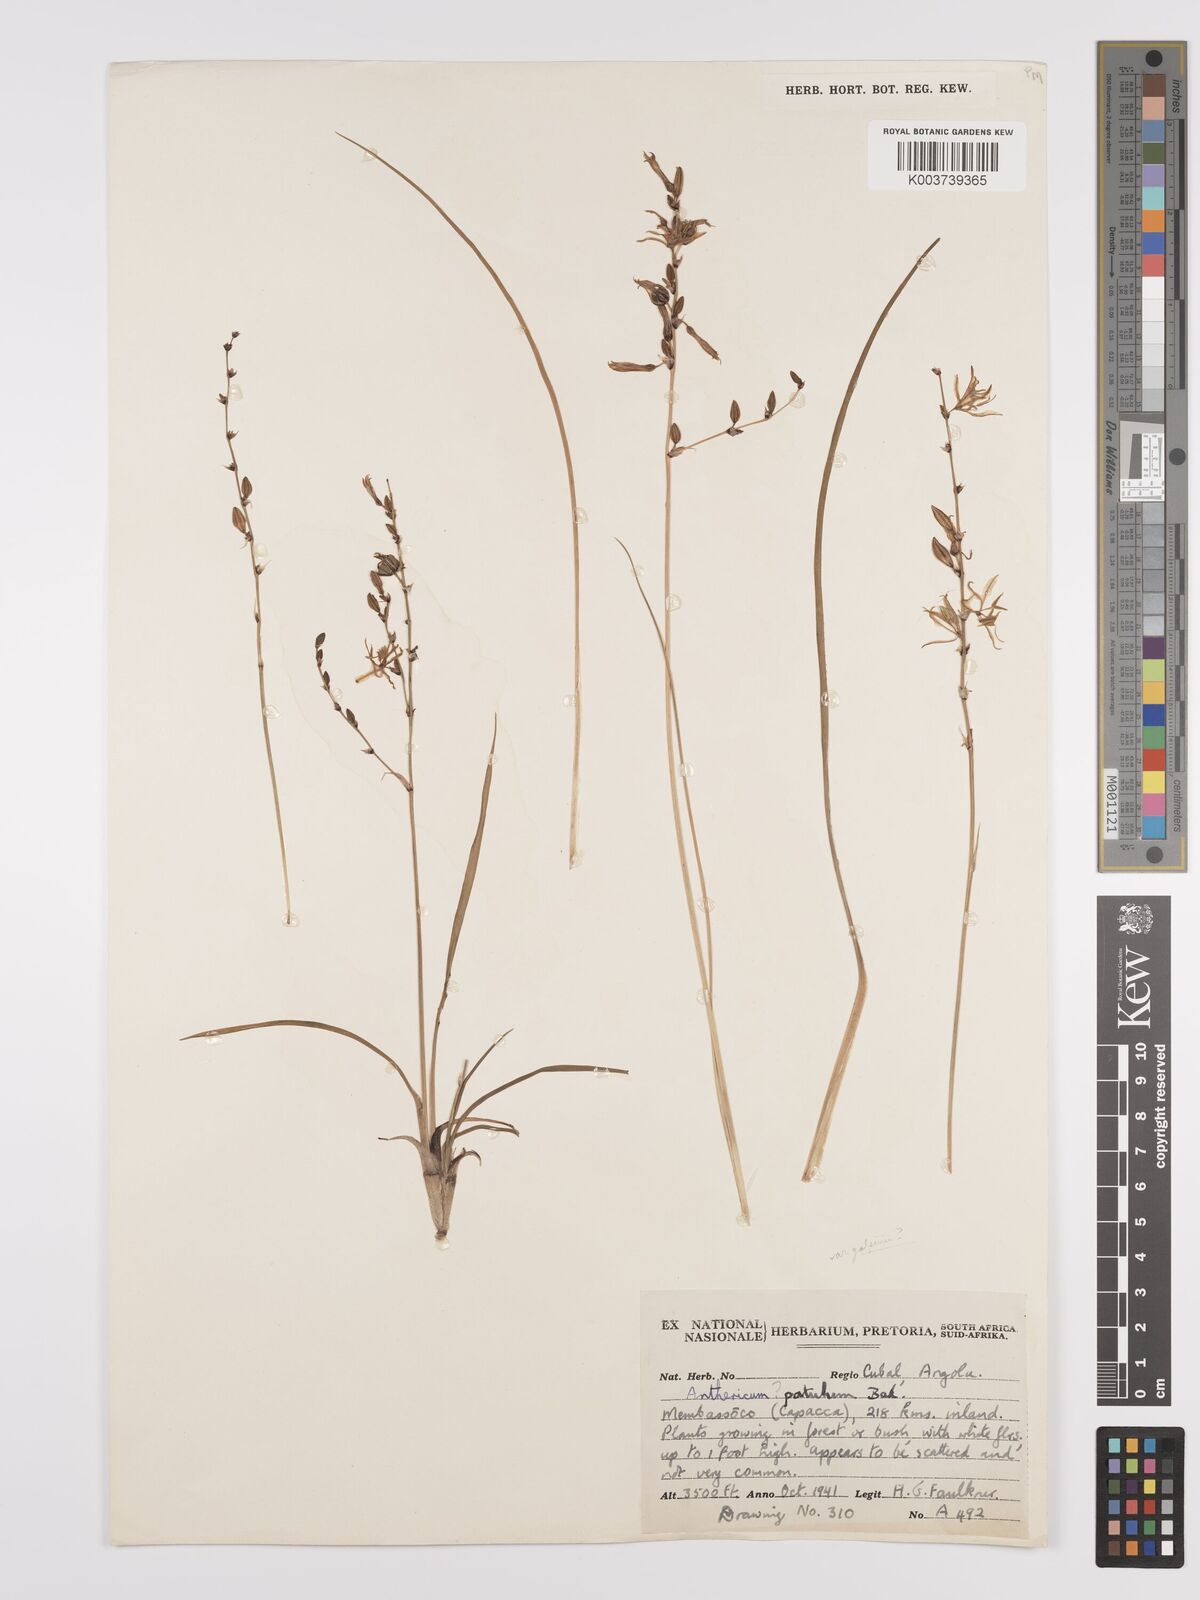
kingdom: Plantae
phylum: Tracheophyta
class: Liliopsida
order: Asparagales
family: Asparagaceae
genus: Chlorophytum
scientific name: Chlorophytum galpinii
